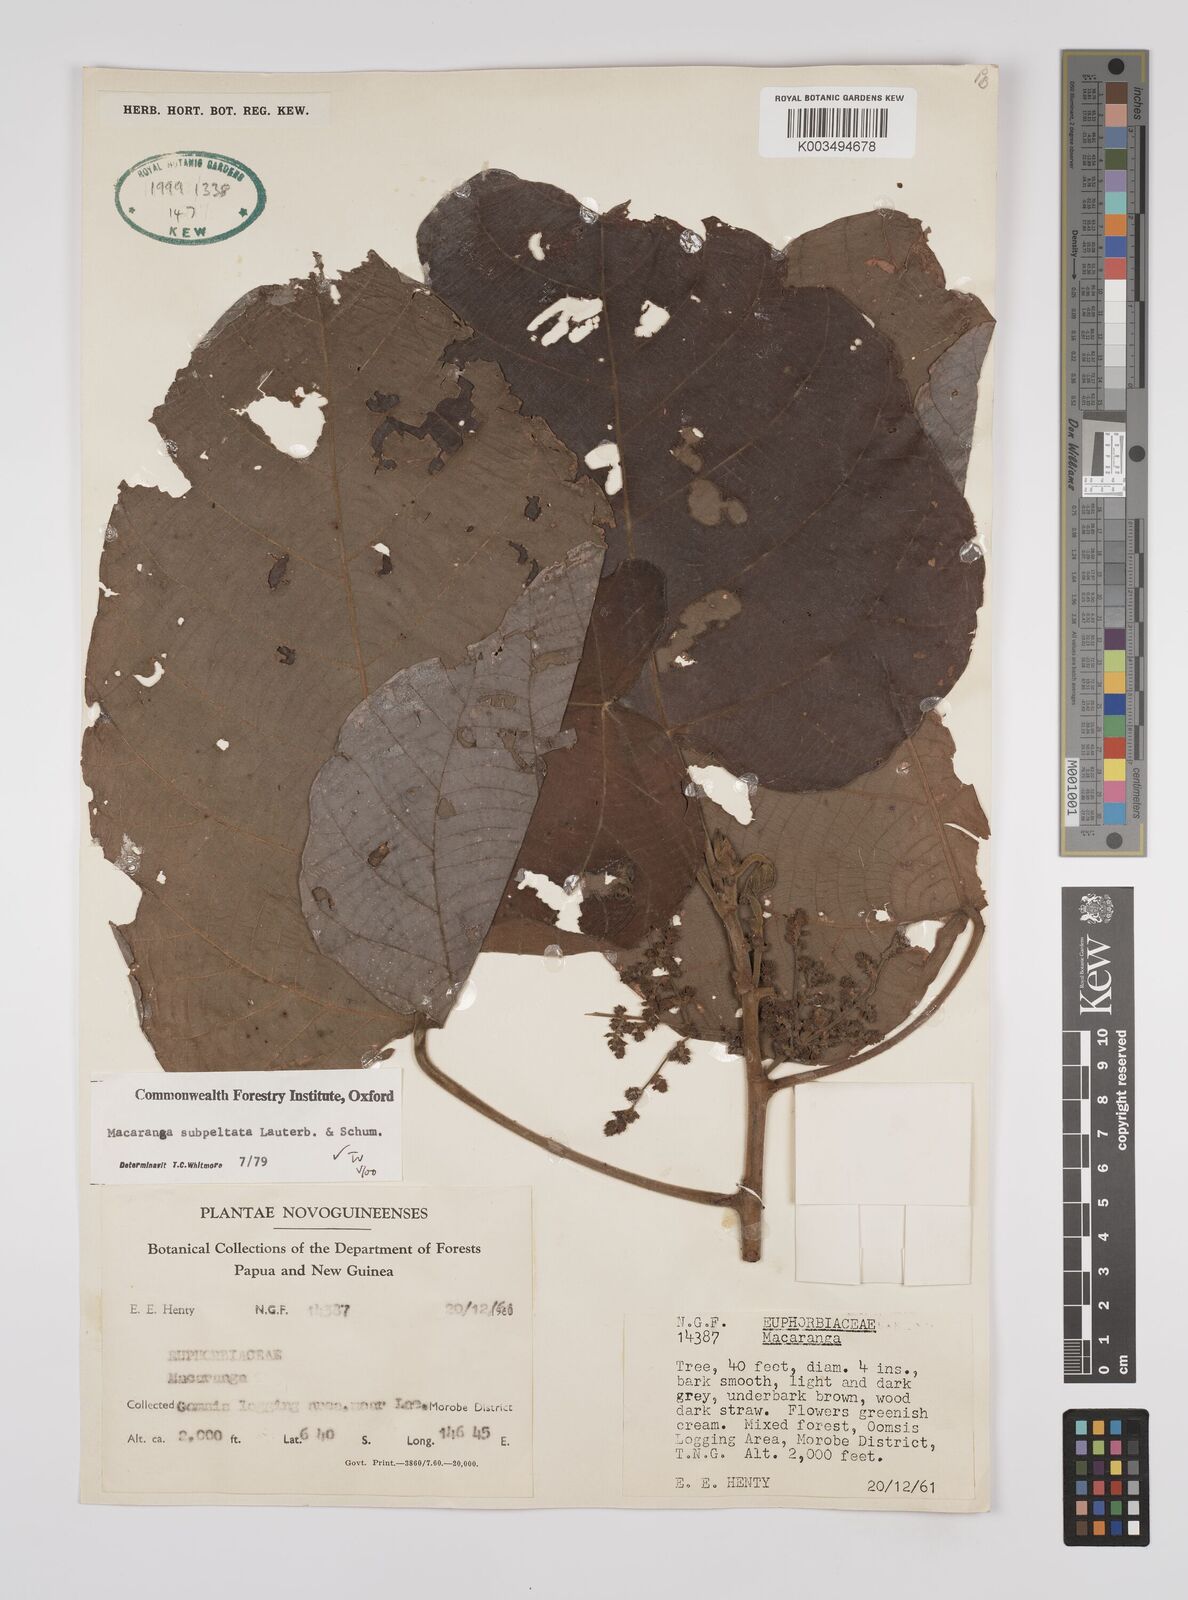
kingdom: Plantae
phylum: Tracheophyta
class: Magnoliopsida
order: Malpighiales
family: Euphorbiaceae
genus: Macaranga
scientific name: Macaranga subpeltata
